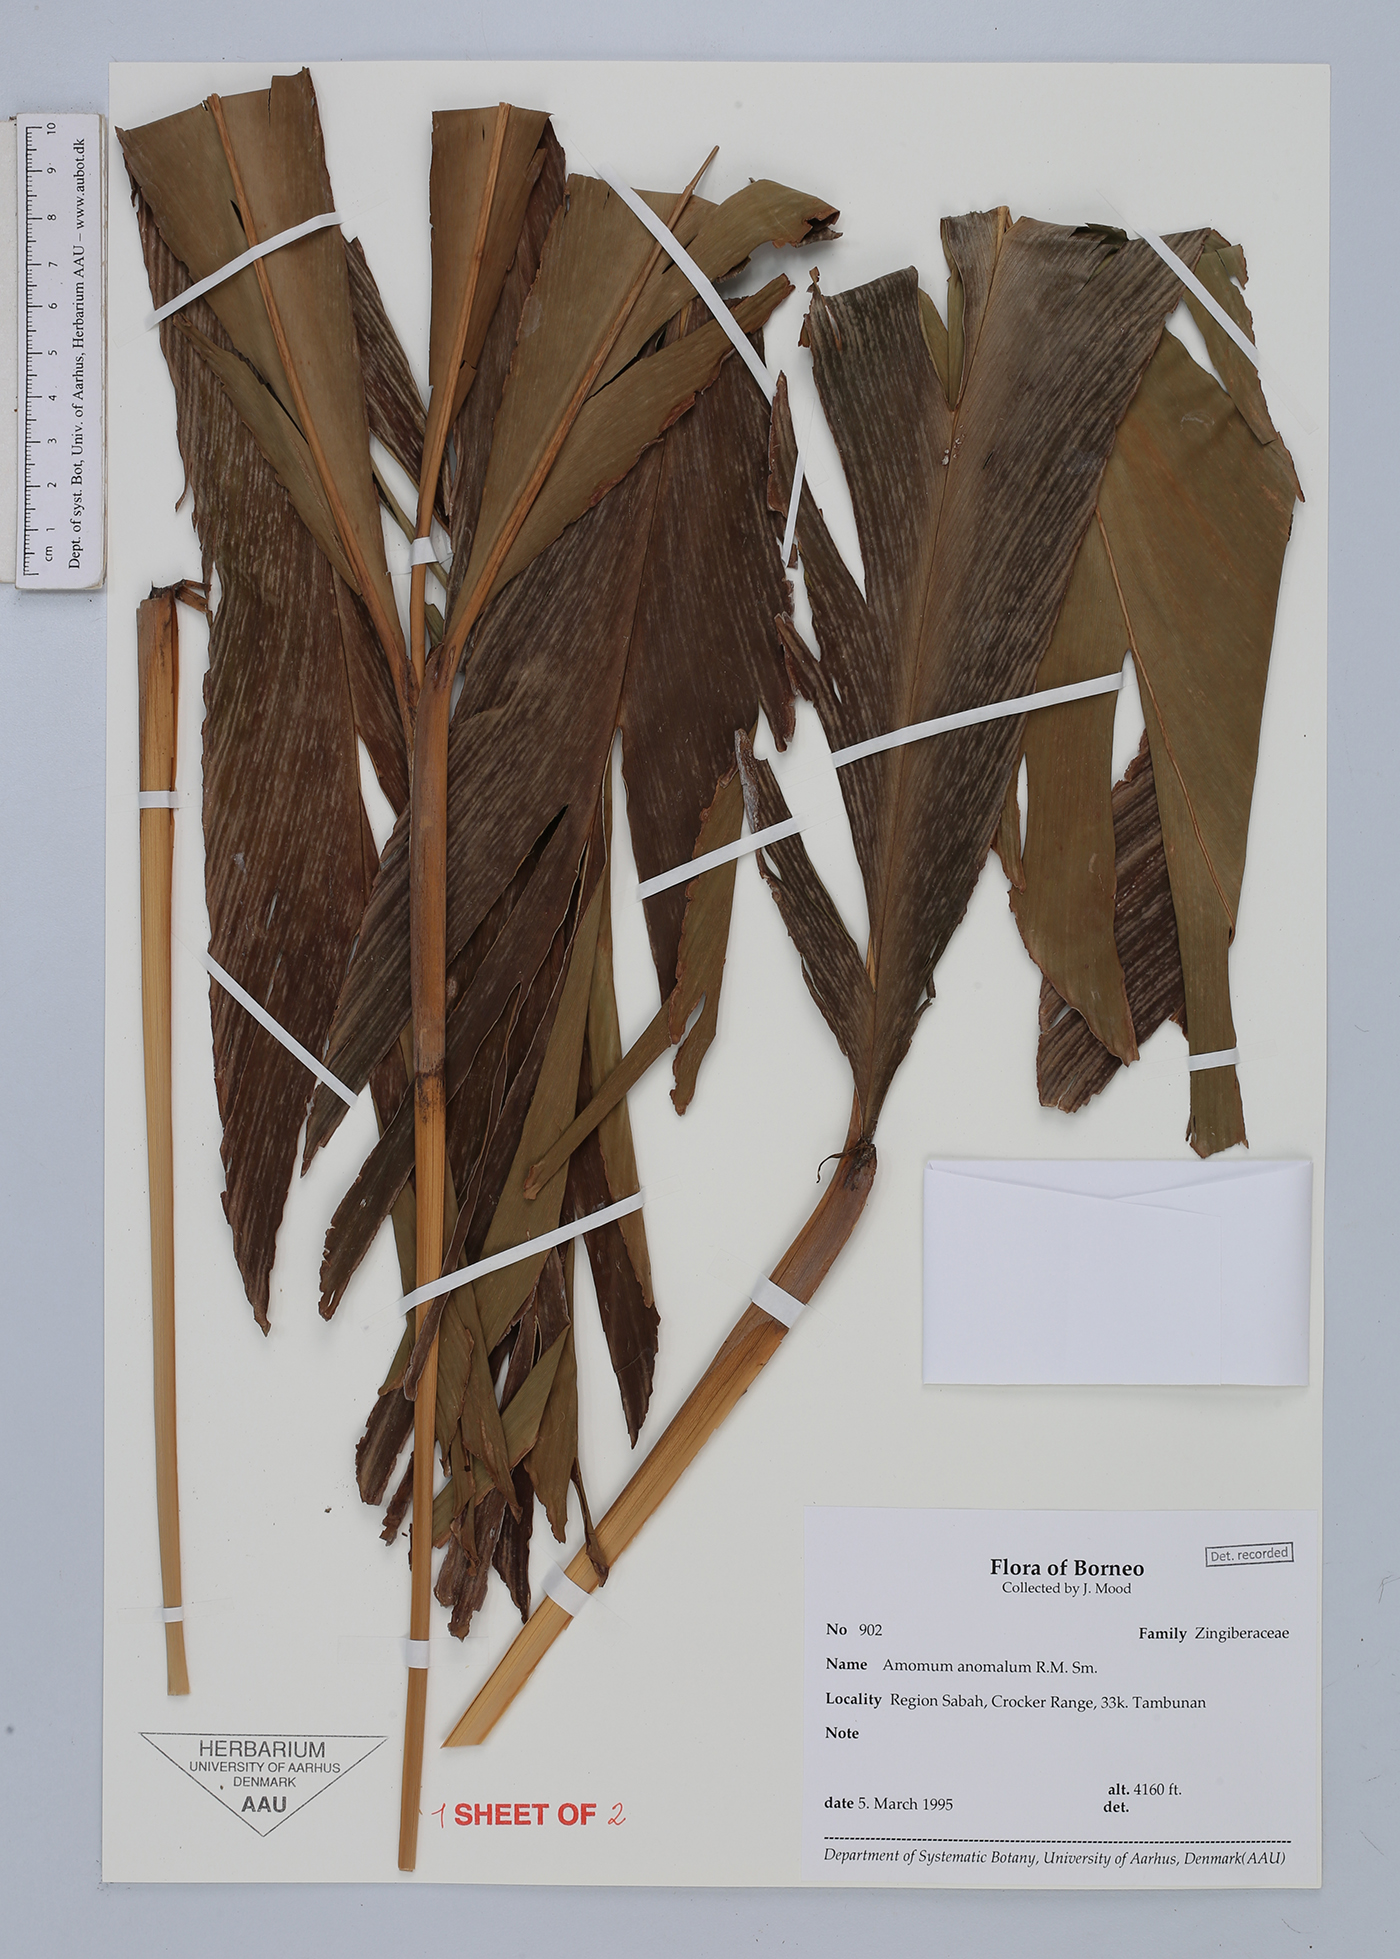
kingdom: Plantae
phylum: Tracheophyta
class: Liliopsida
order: Zingiberales
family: Zingiberaceae
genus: Sulettaria
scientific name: Sulettaria anomala
